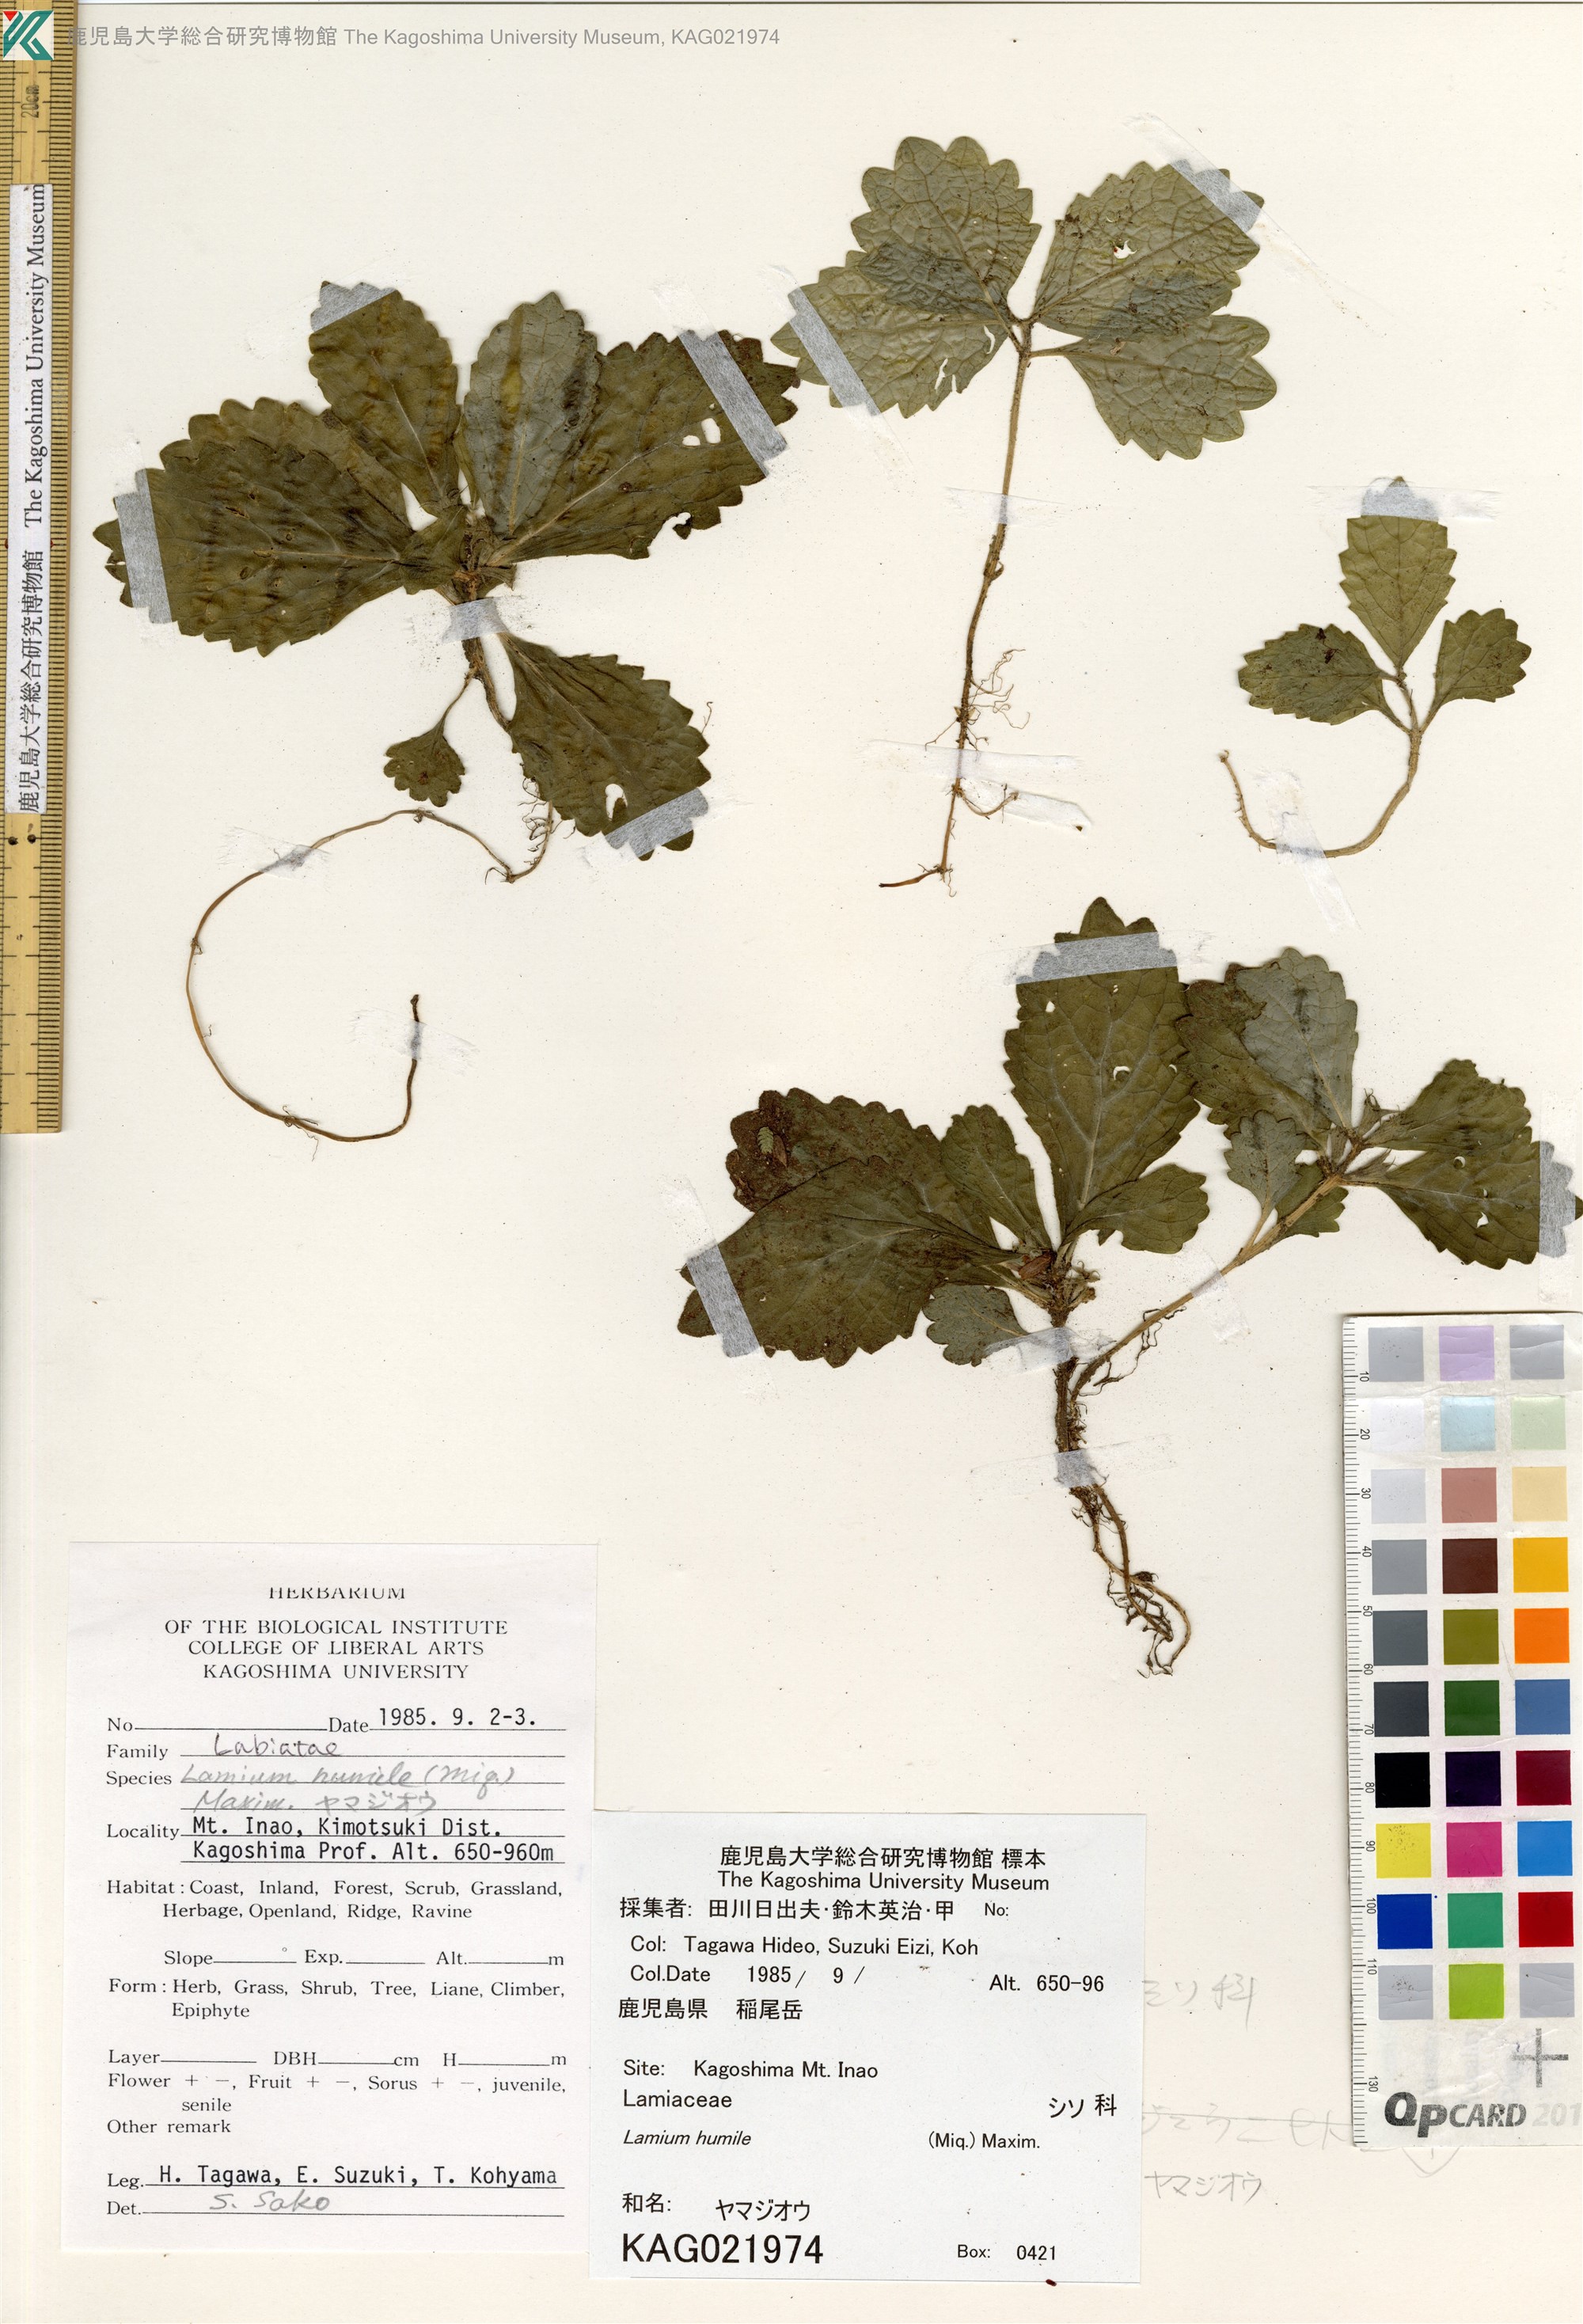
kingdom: Plantae
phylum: Tracheophyta
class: Magnoliopsida
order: Lamiales
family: Lamiaceae
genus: Ajugoides
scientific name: Ajugoides humilis
